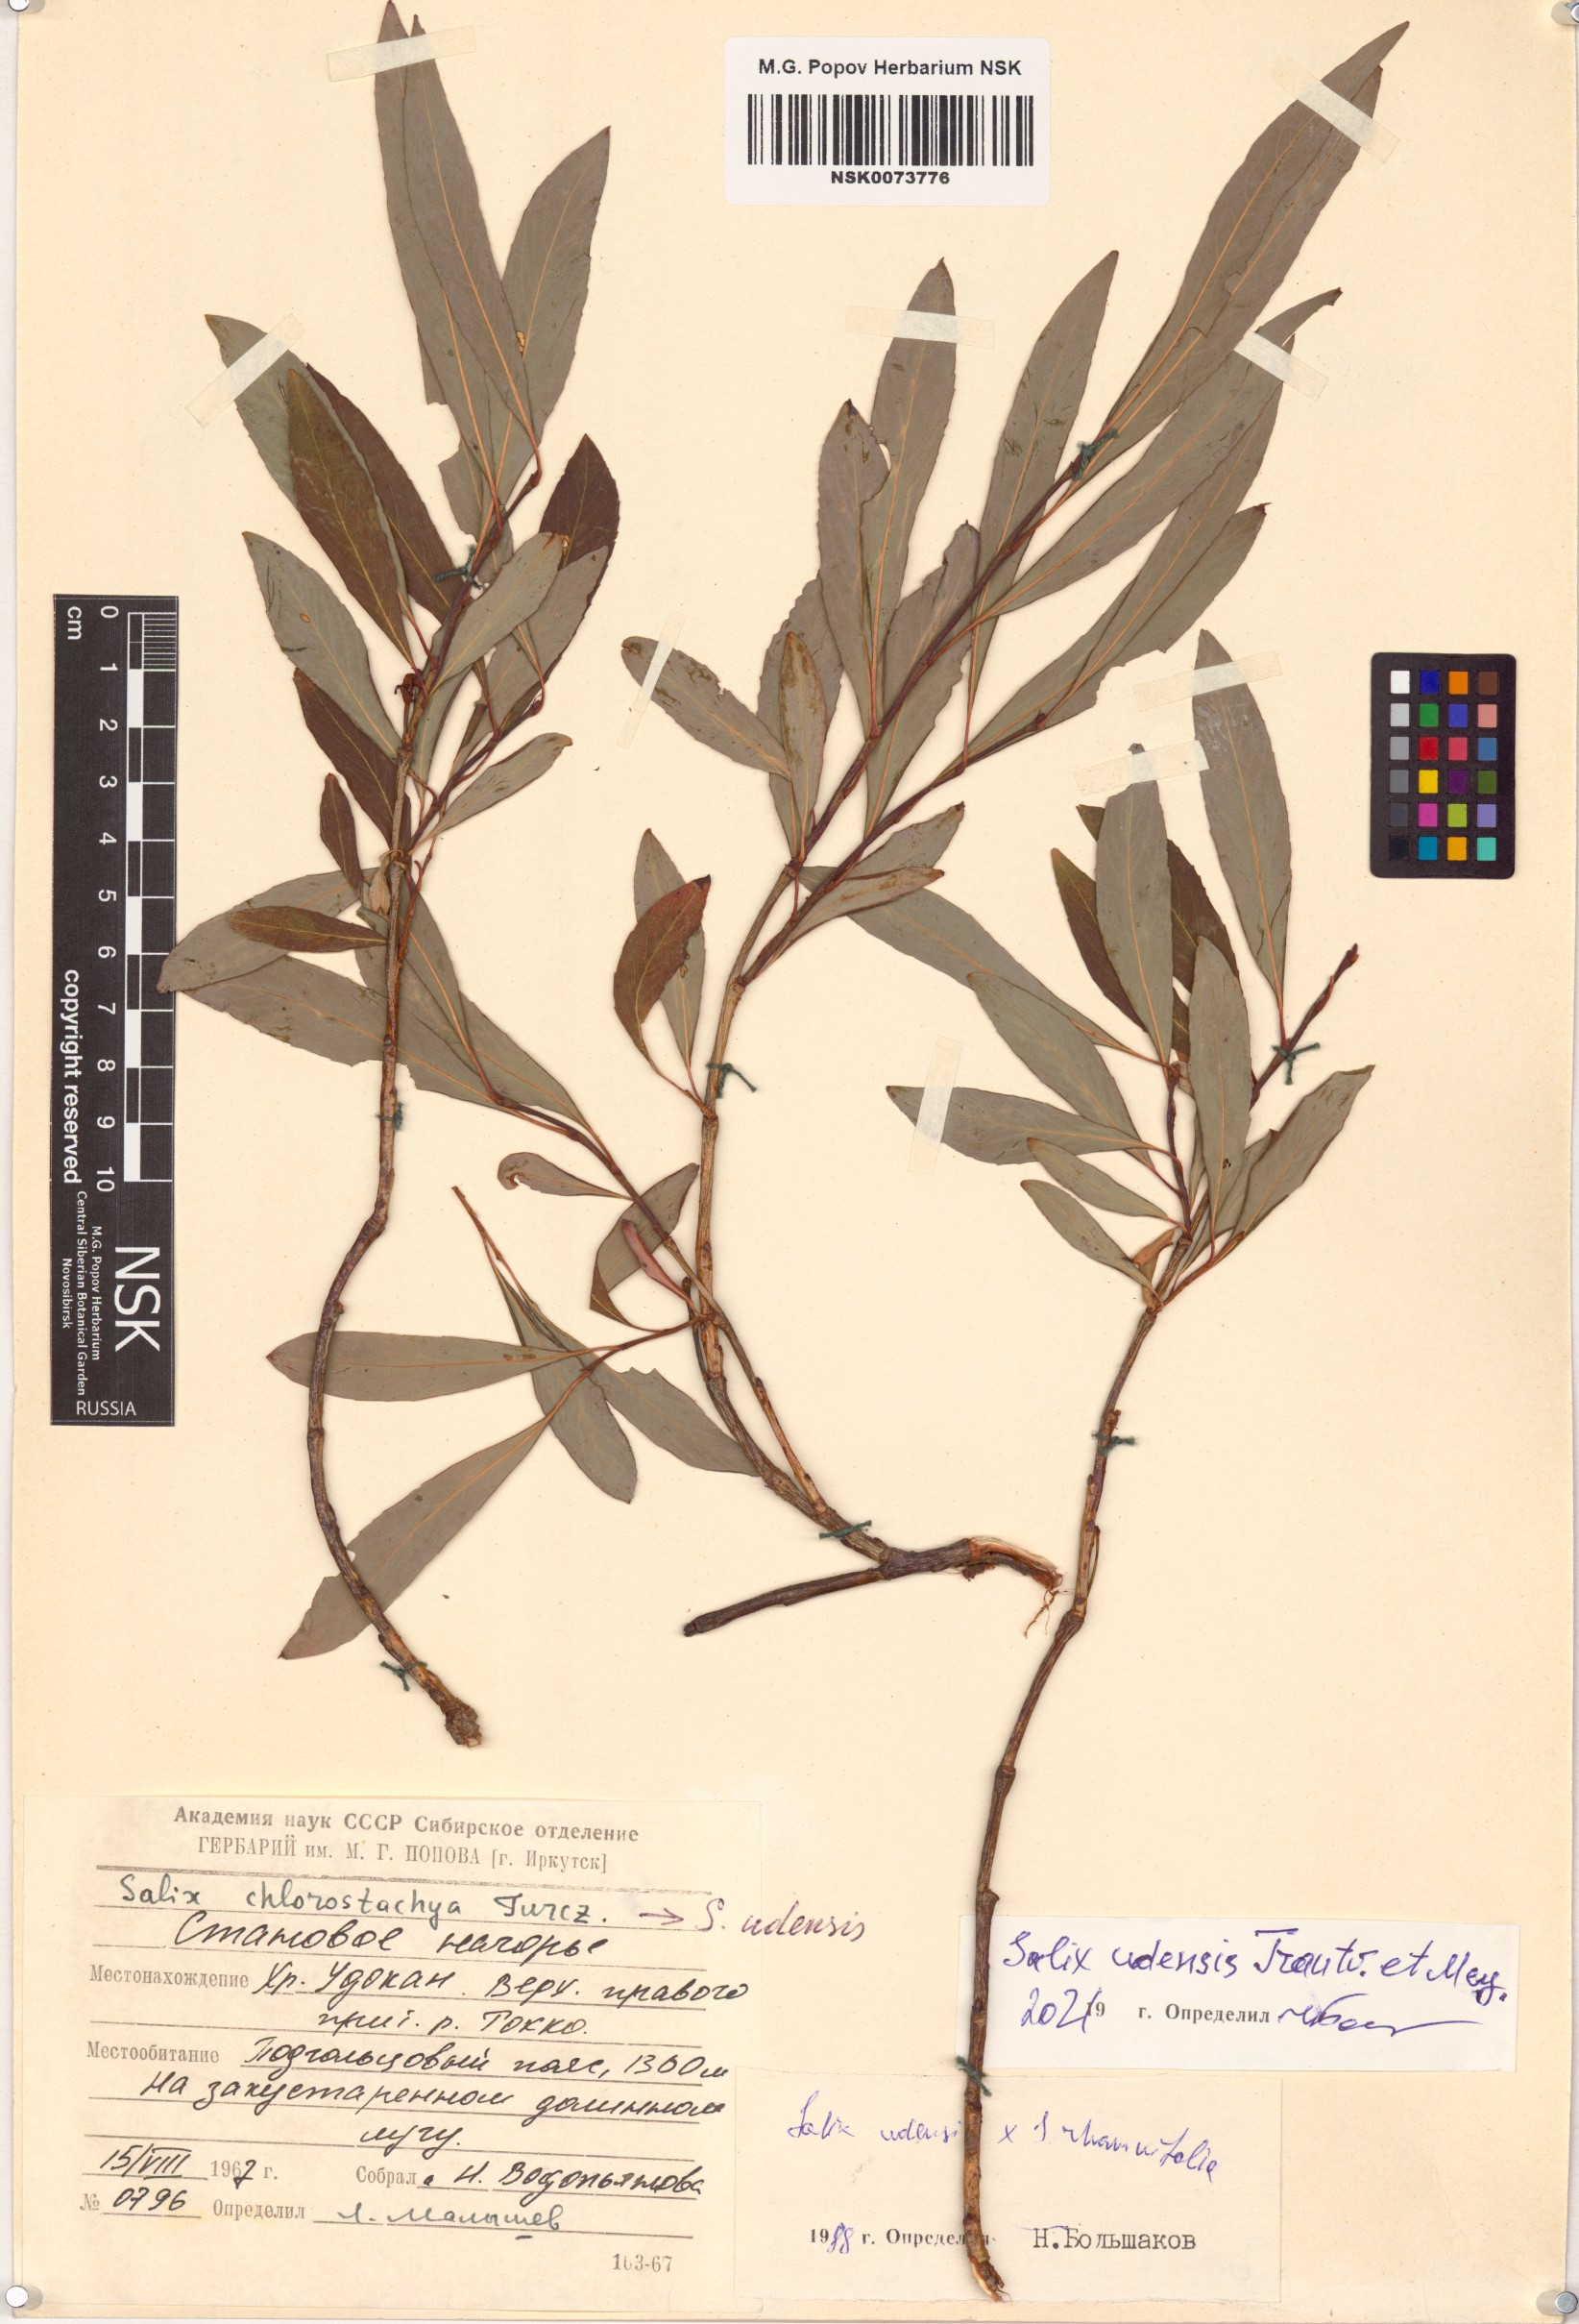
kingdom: Plantae
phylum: Tracheophyta
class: Magnoliopsida
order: Malpighiales
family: Salicaceae
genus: Salix
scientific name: Salix udensis
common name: Sachalin willow
